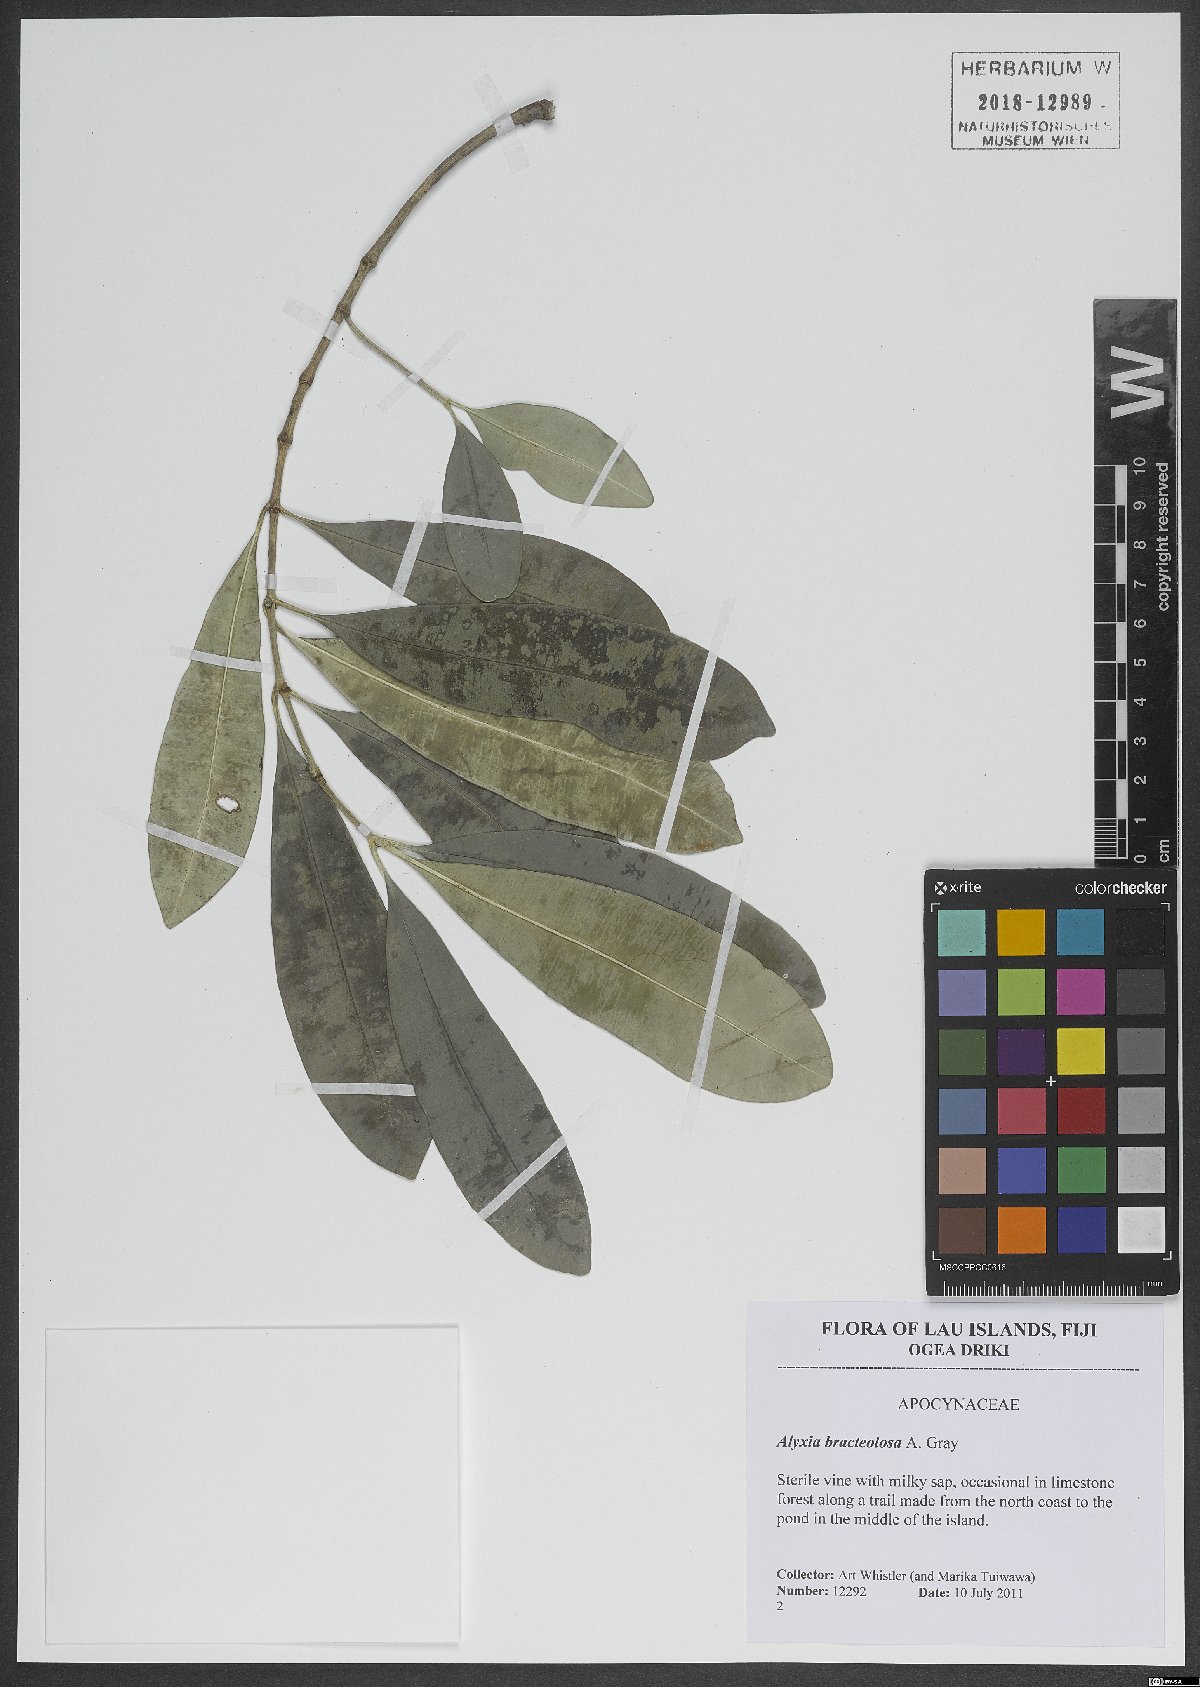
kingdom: Plantae
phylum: Tracheophyta
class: Magnoliopsida
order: Gentianales
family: Apocynaceae
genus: Alyxia
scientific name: Alyxia bracteolosa
